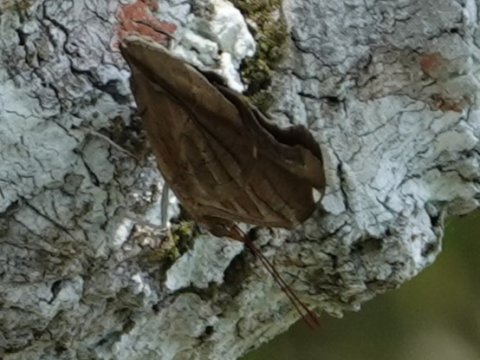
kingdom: Animalia
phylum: Arthropoda
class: Insecta
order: Lepidoptera
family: Nymphalidae
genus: Historis
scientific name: Historis odius
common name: Orion Cecropian
